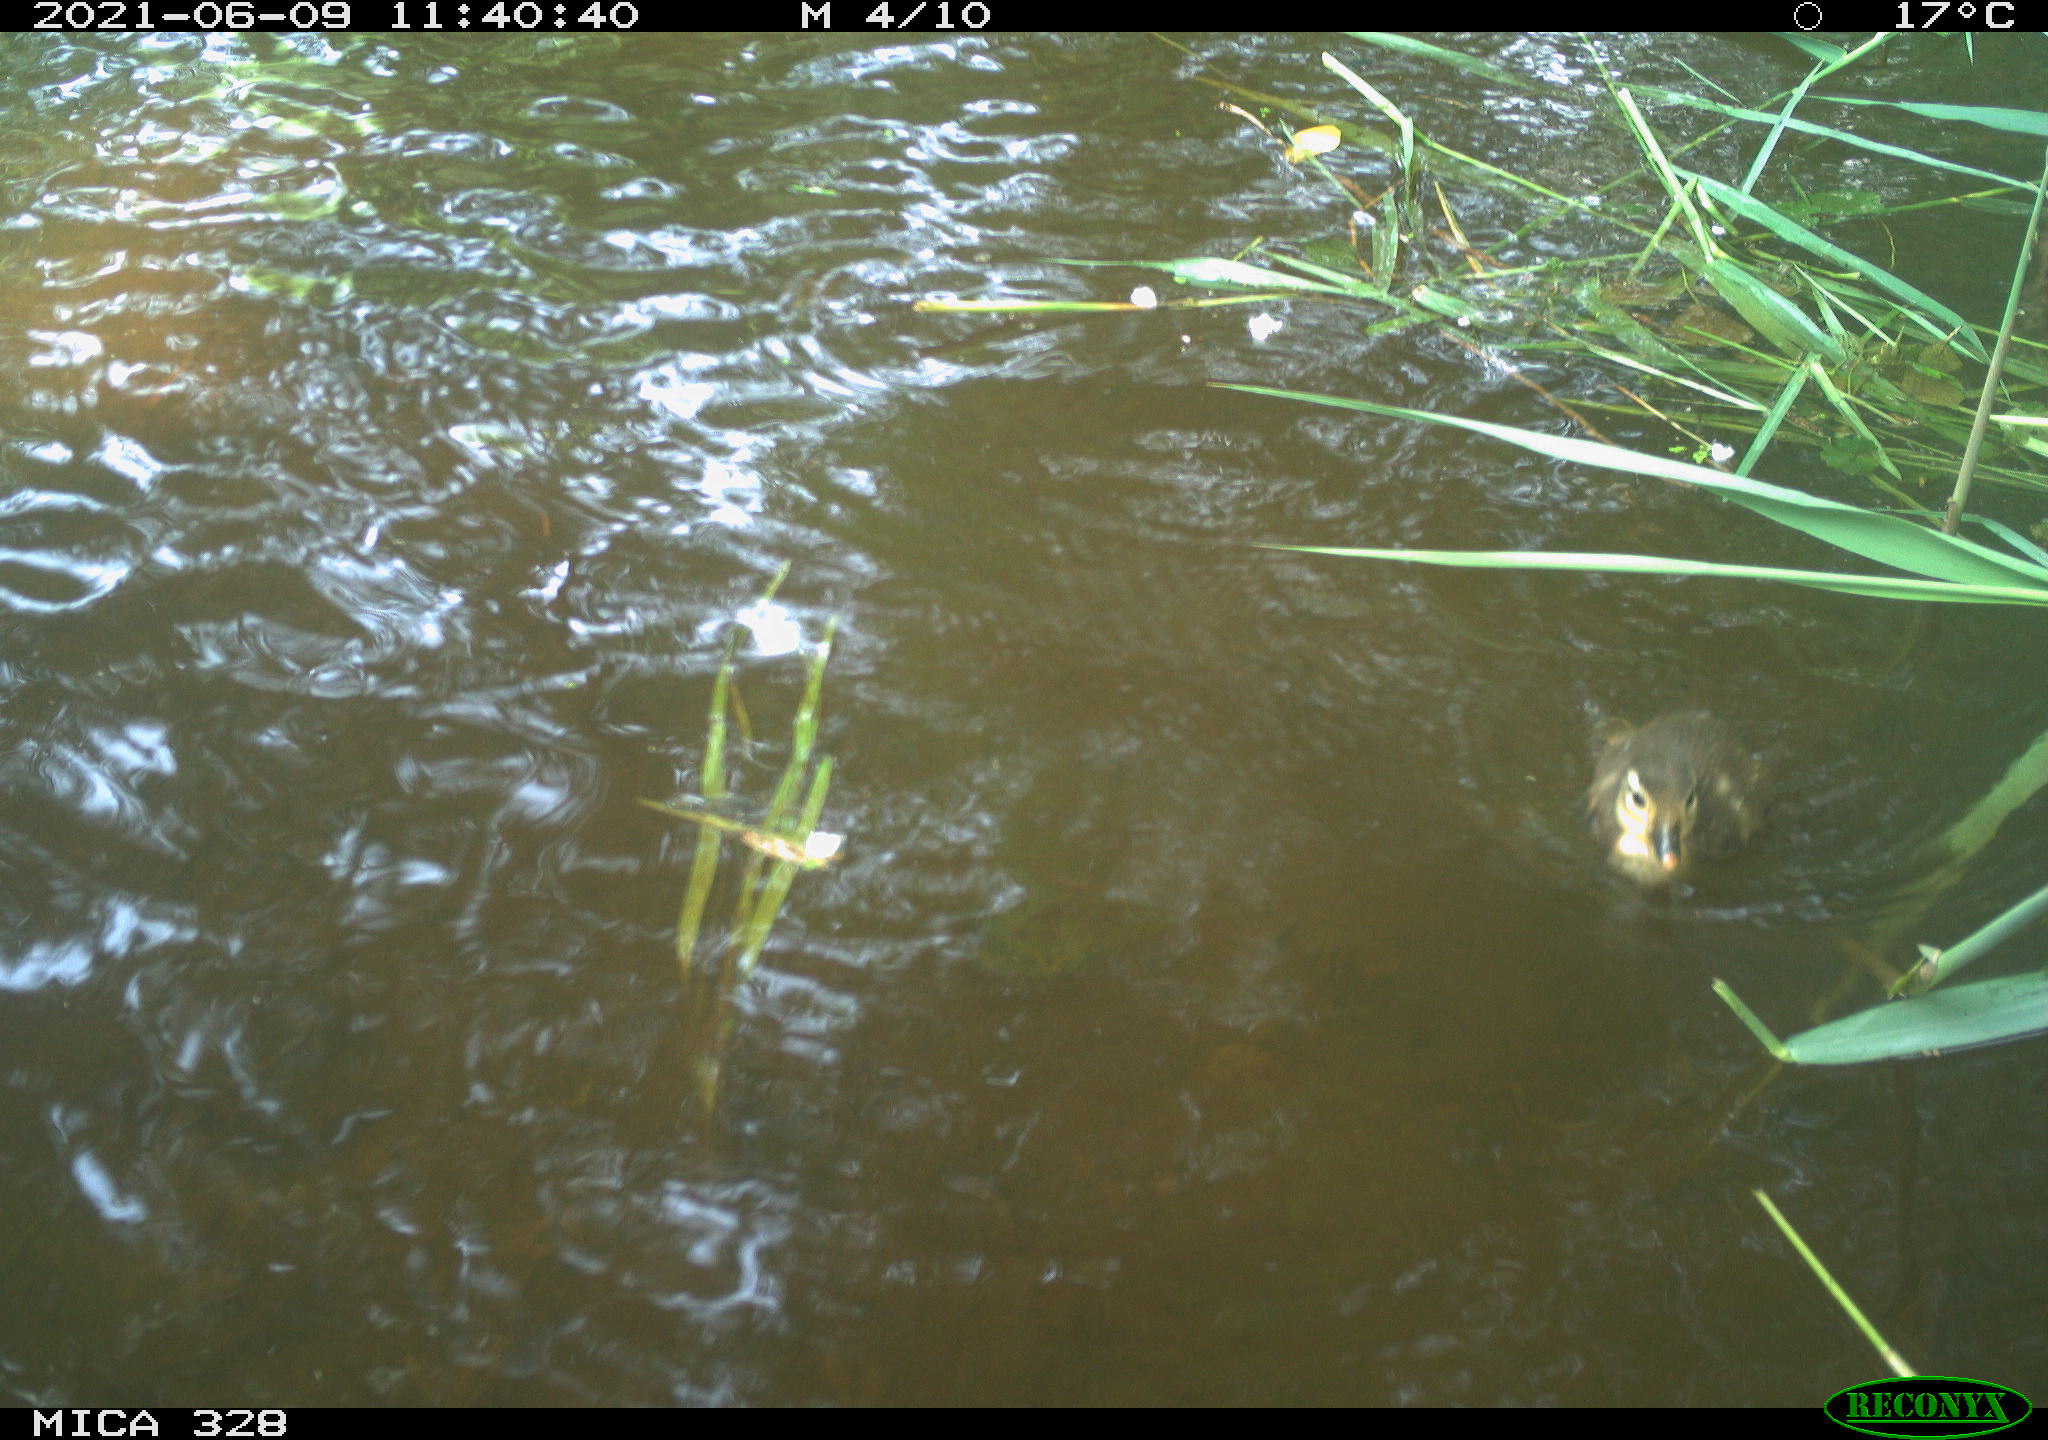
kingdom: Animalia
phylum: Chordata
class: Aves
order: Anseriformes
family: Anatidae
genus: Aix
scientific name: Aix galericulata
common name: Mandarin duck
